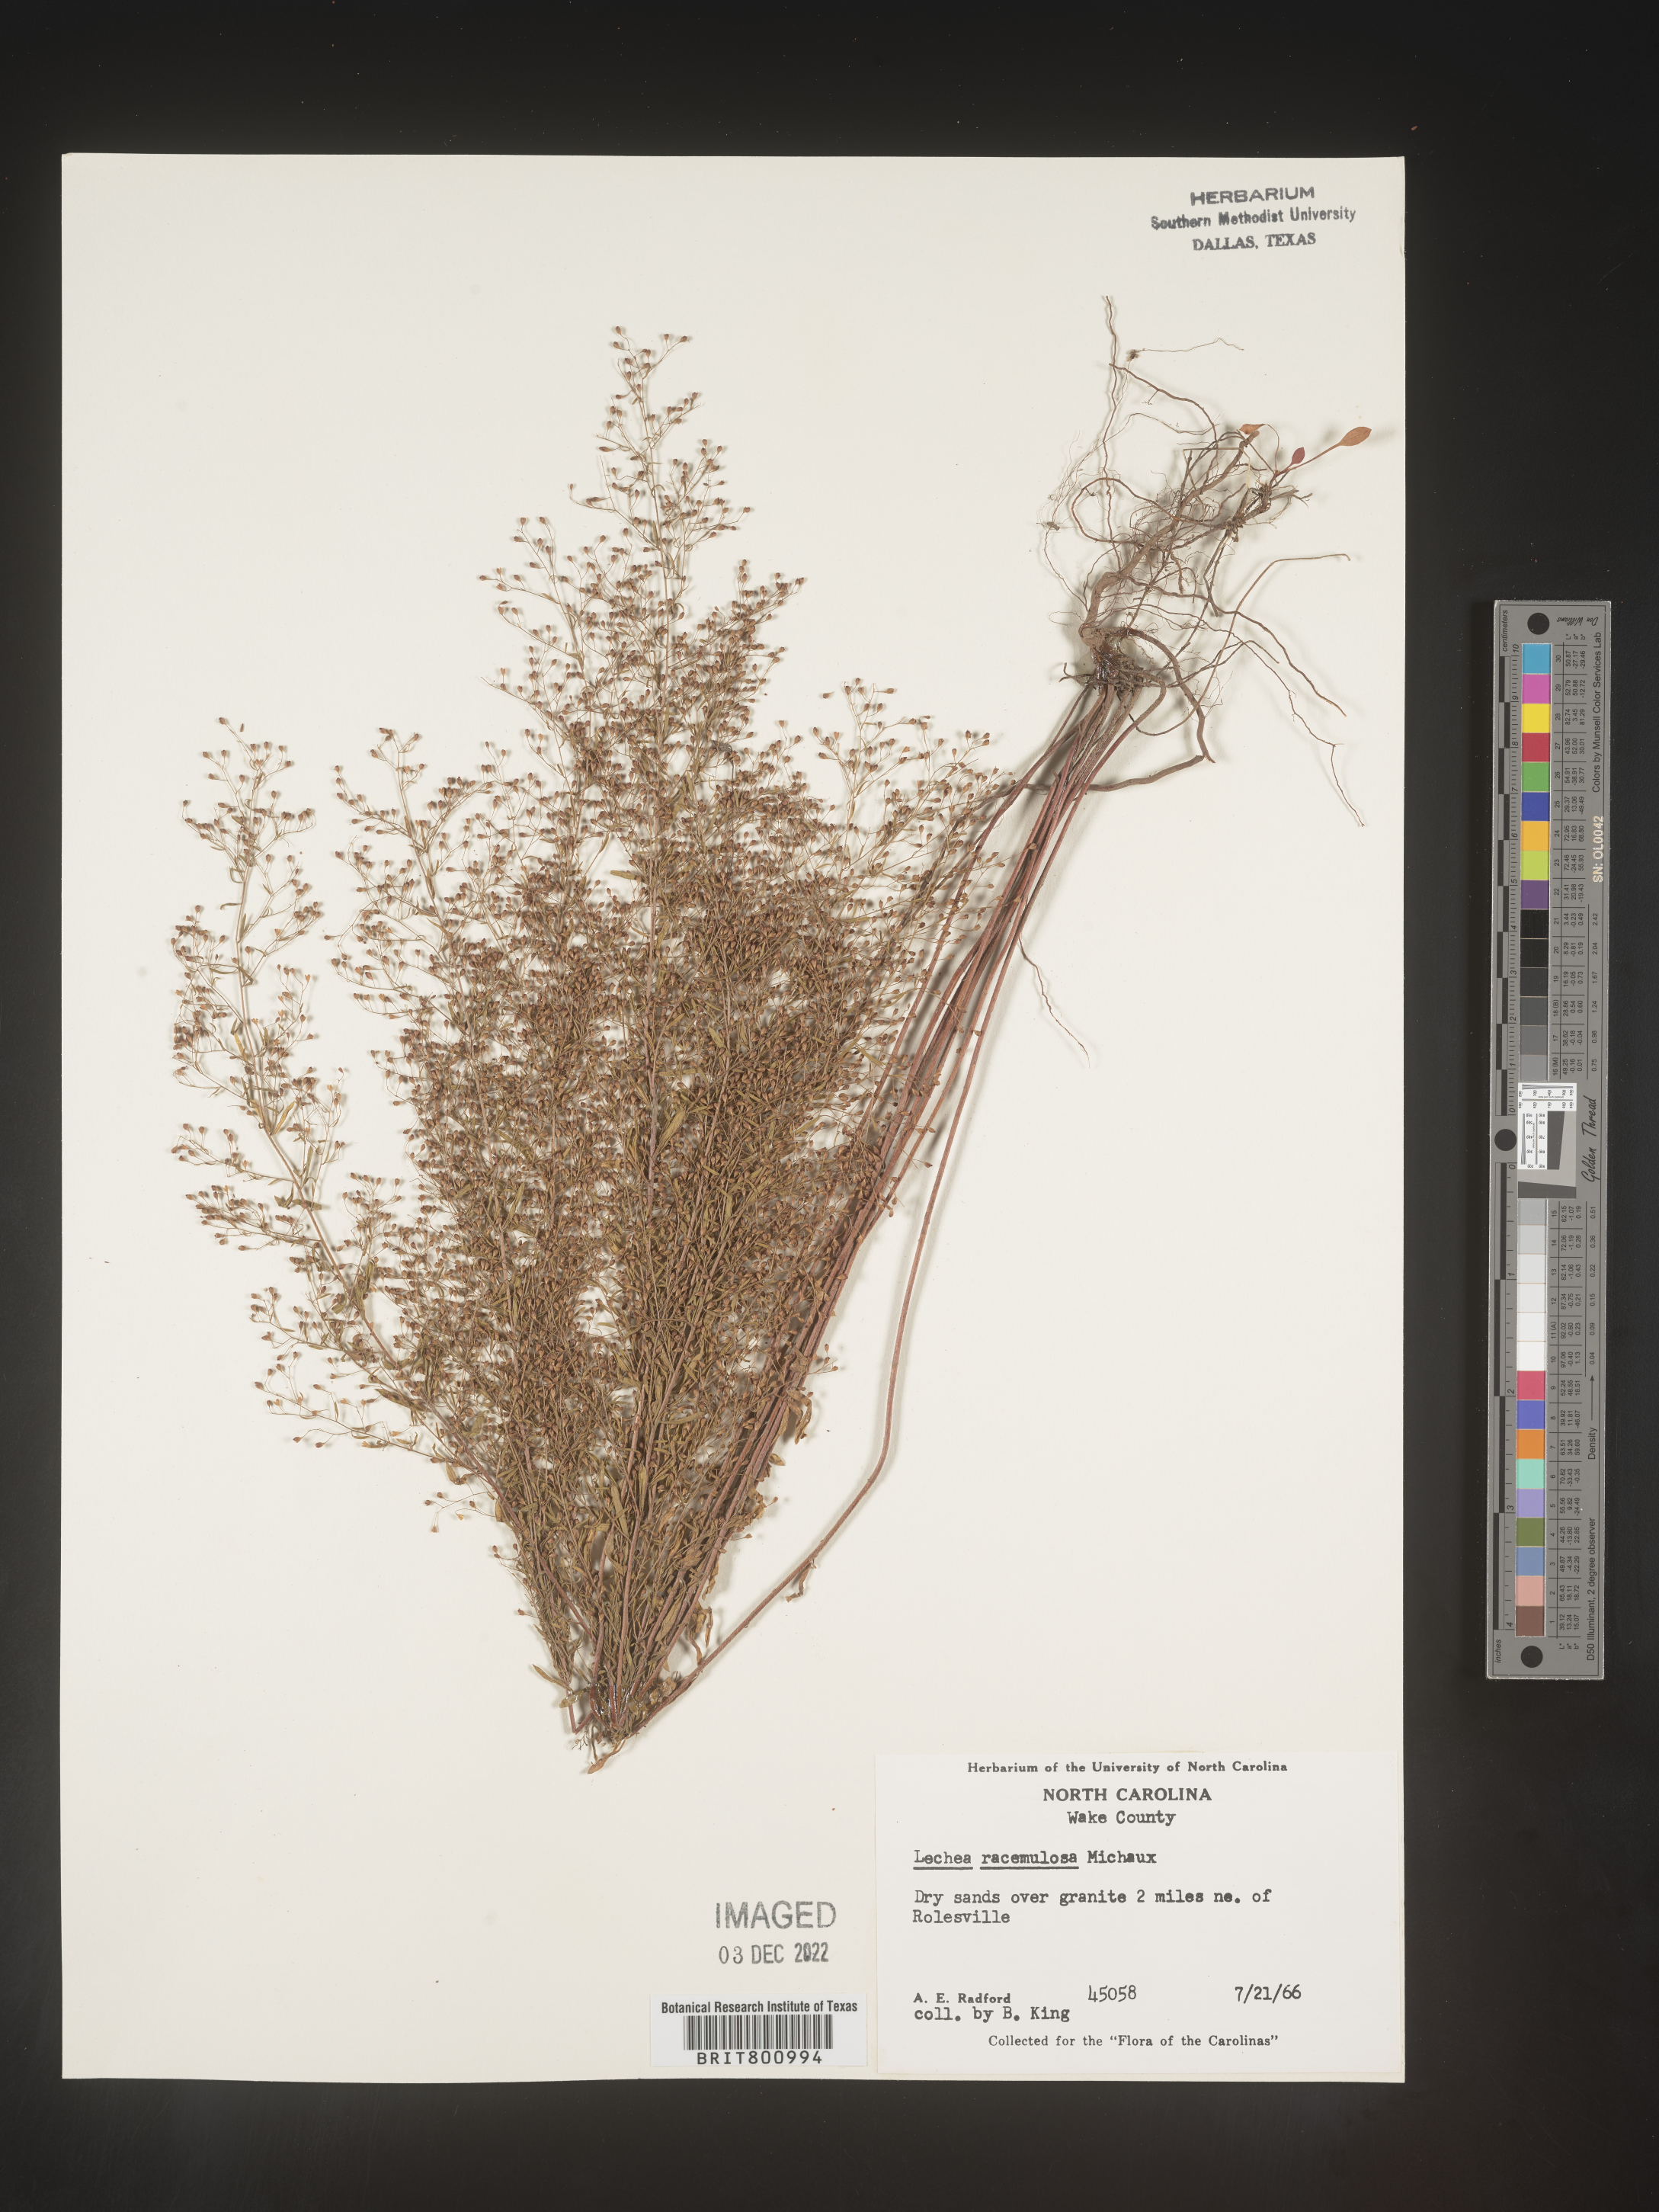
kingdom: Plantae
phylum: Tracheophyta
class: Magnoliopsida
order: Malvales
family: Cistaceae
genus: Lechea
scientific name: Lechea racemulosa
